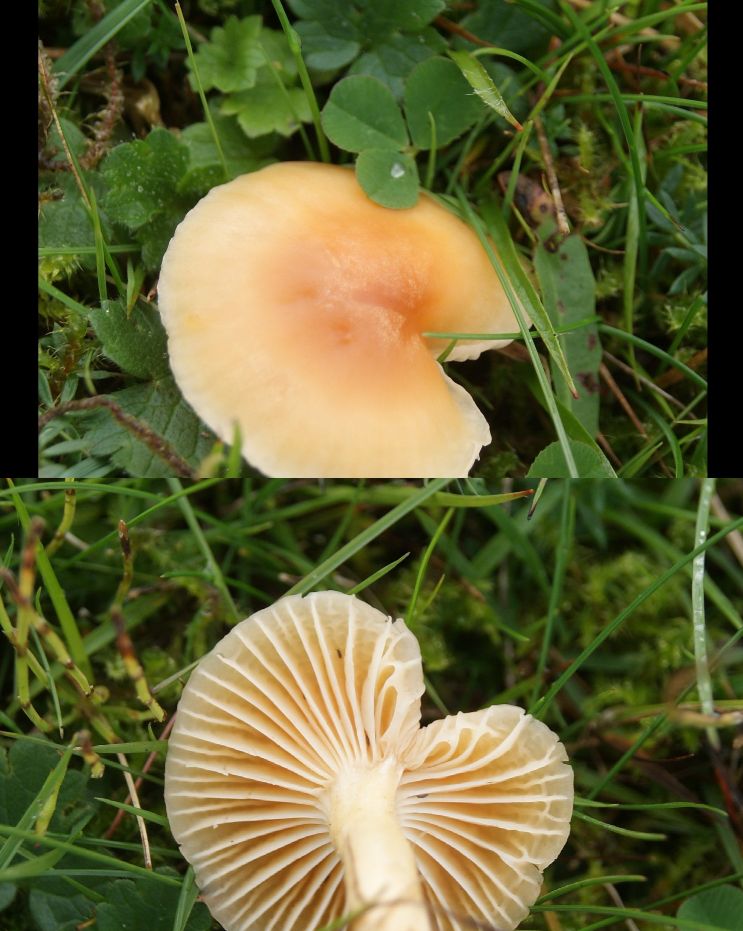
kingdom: Fungi
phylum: Basidiomycota
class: Agaricomycetes
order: Agaricales
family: Hygrophoraceae
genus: Cuphophyllus
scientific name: Cuphophyllus pratensis
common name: eng-vokshat
